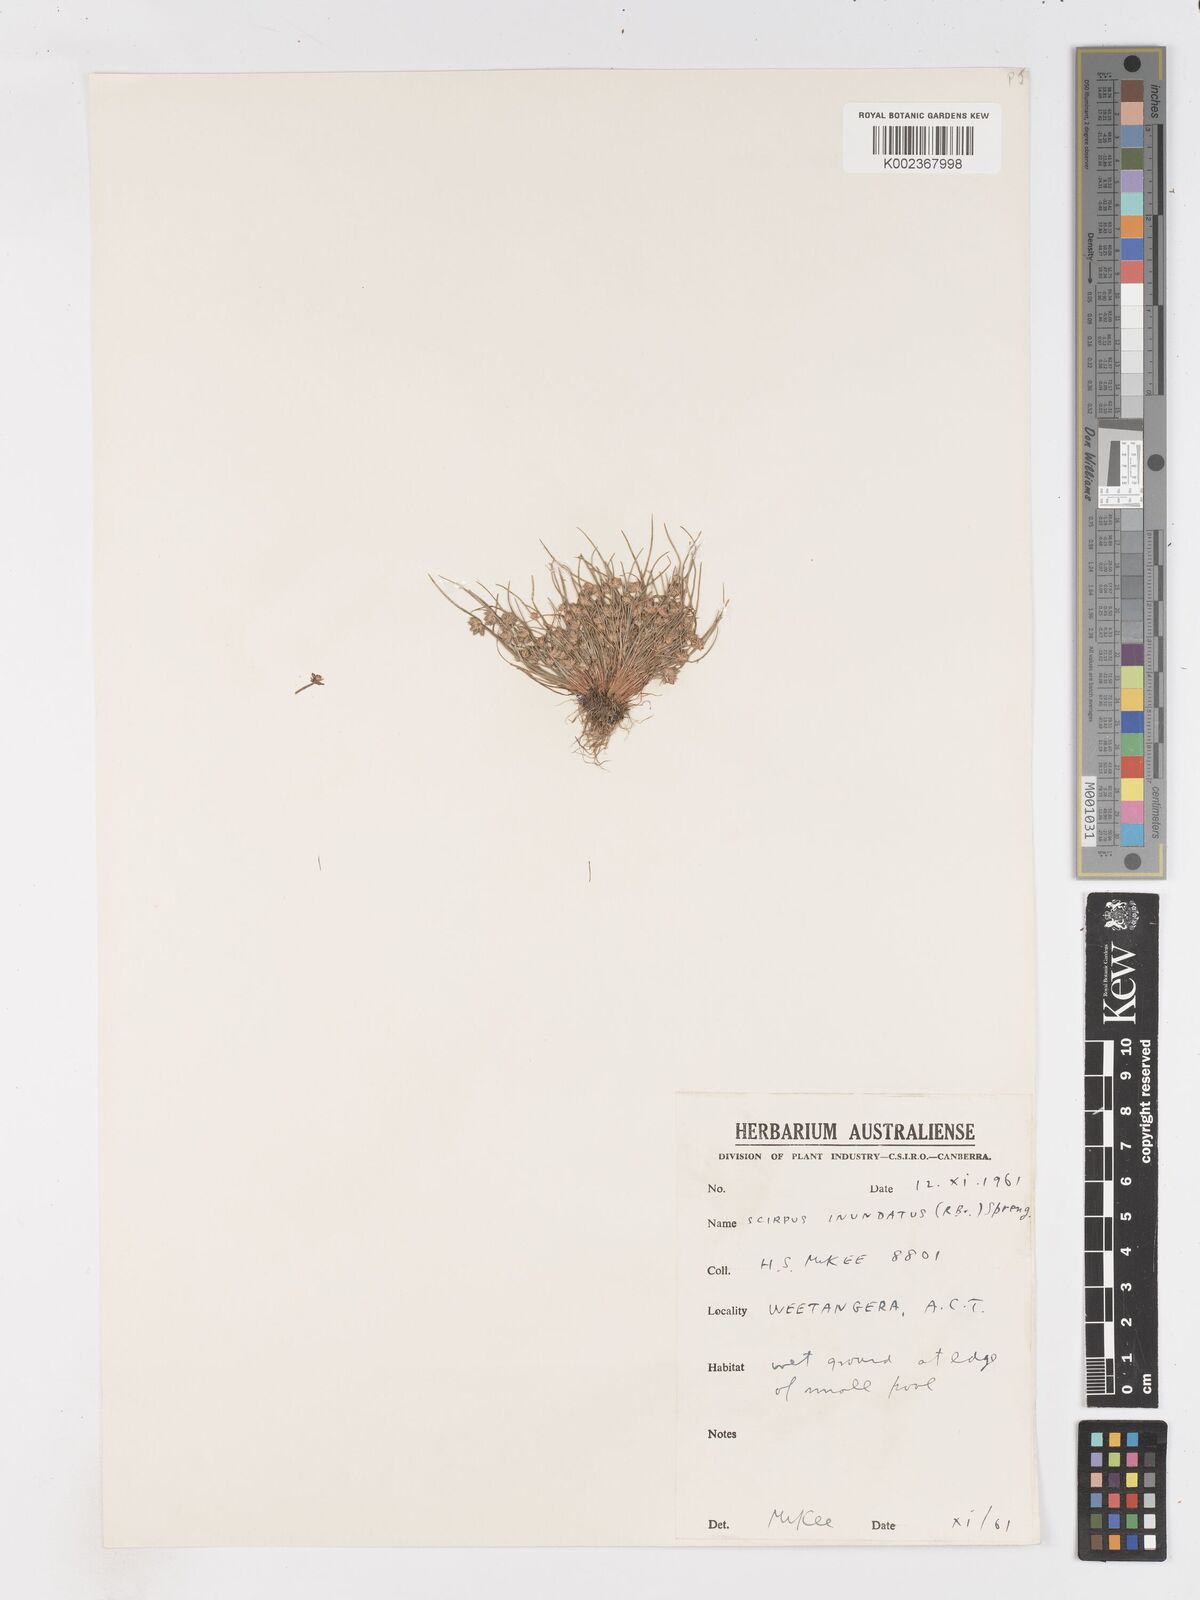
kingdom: Plantae
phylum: Tracheophyta
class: Liliopsida
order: Poales
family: Cyperaceae
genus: Isolepis
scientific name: Isolepis inundata
